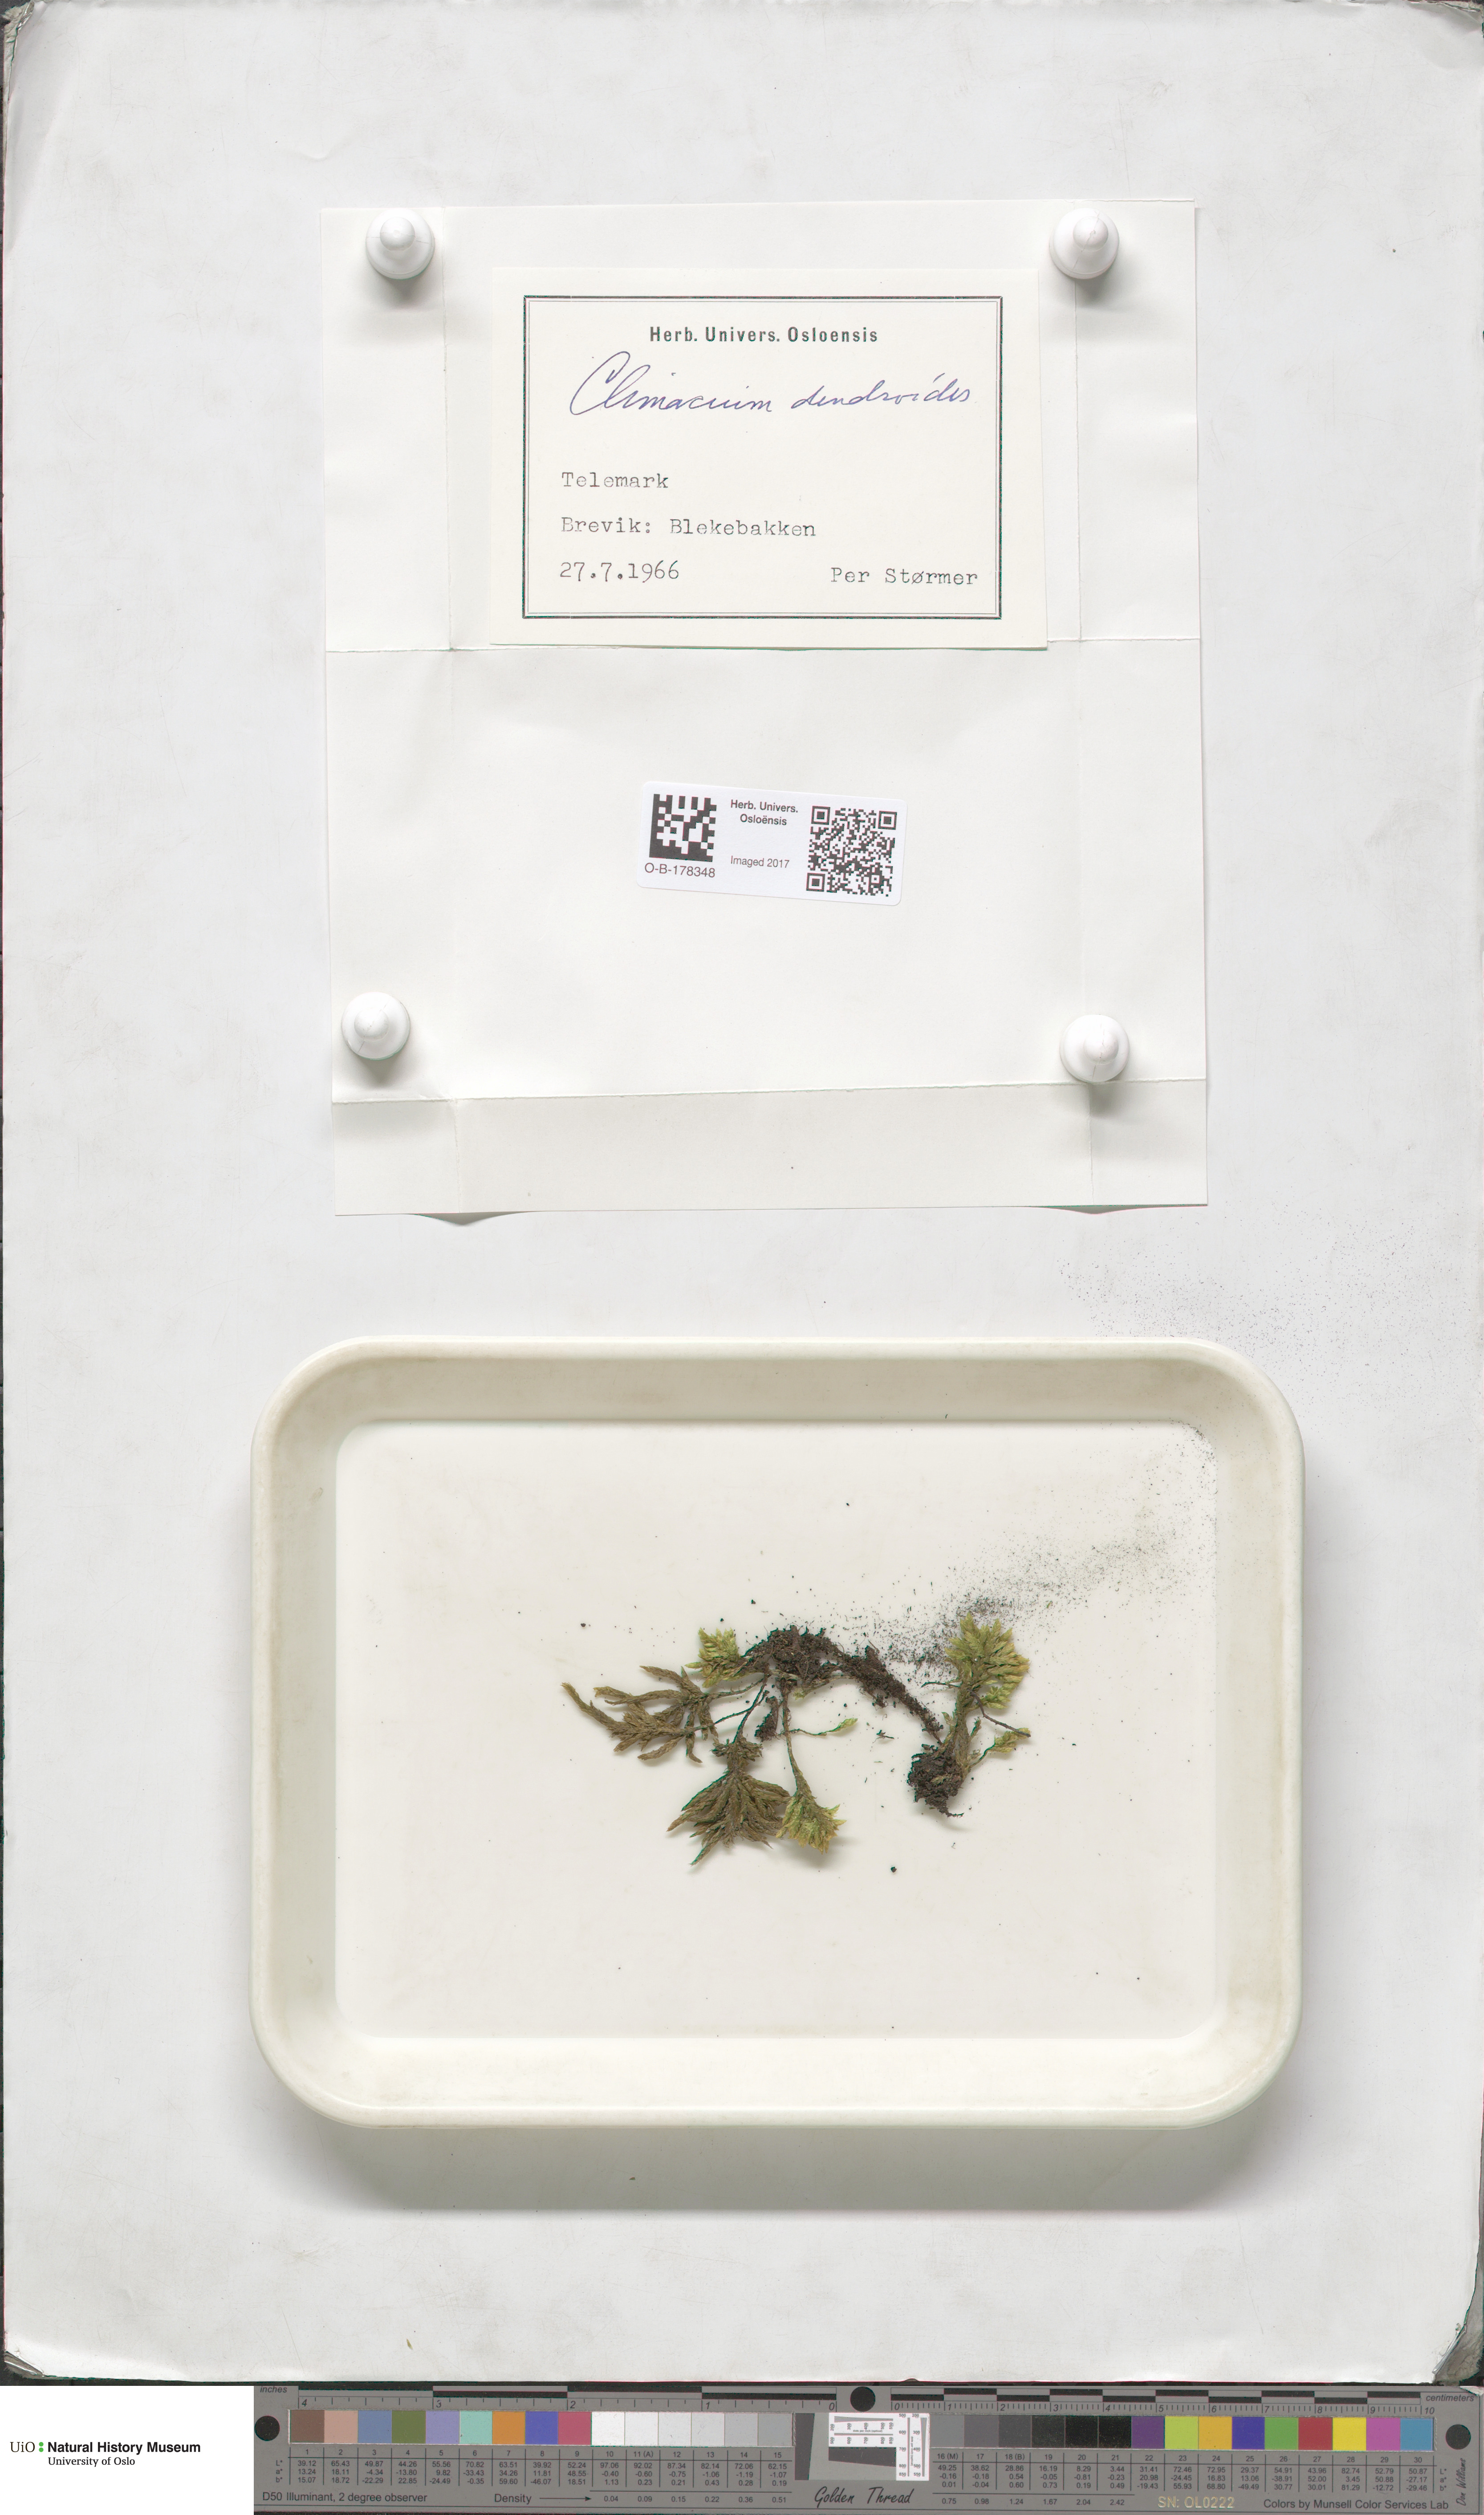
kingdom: Plantae
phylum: Bryophyta
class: Bryopsida
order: Hypnales
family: Climaciaceae
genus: Climacium
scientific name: Climacium dendroides
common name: Northern tree moss
